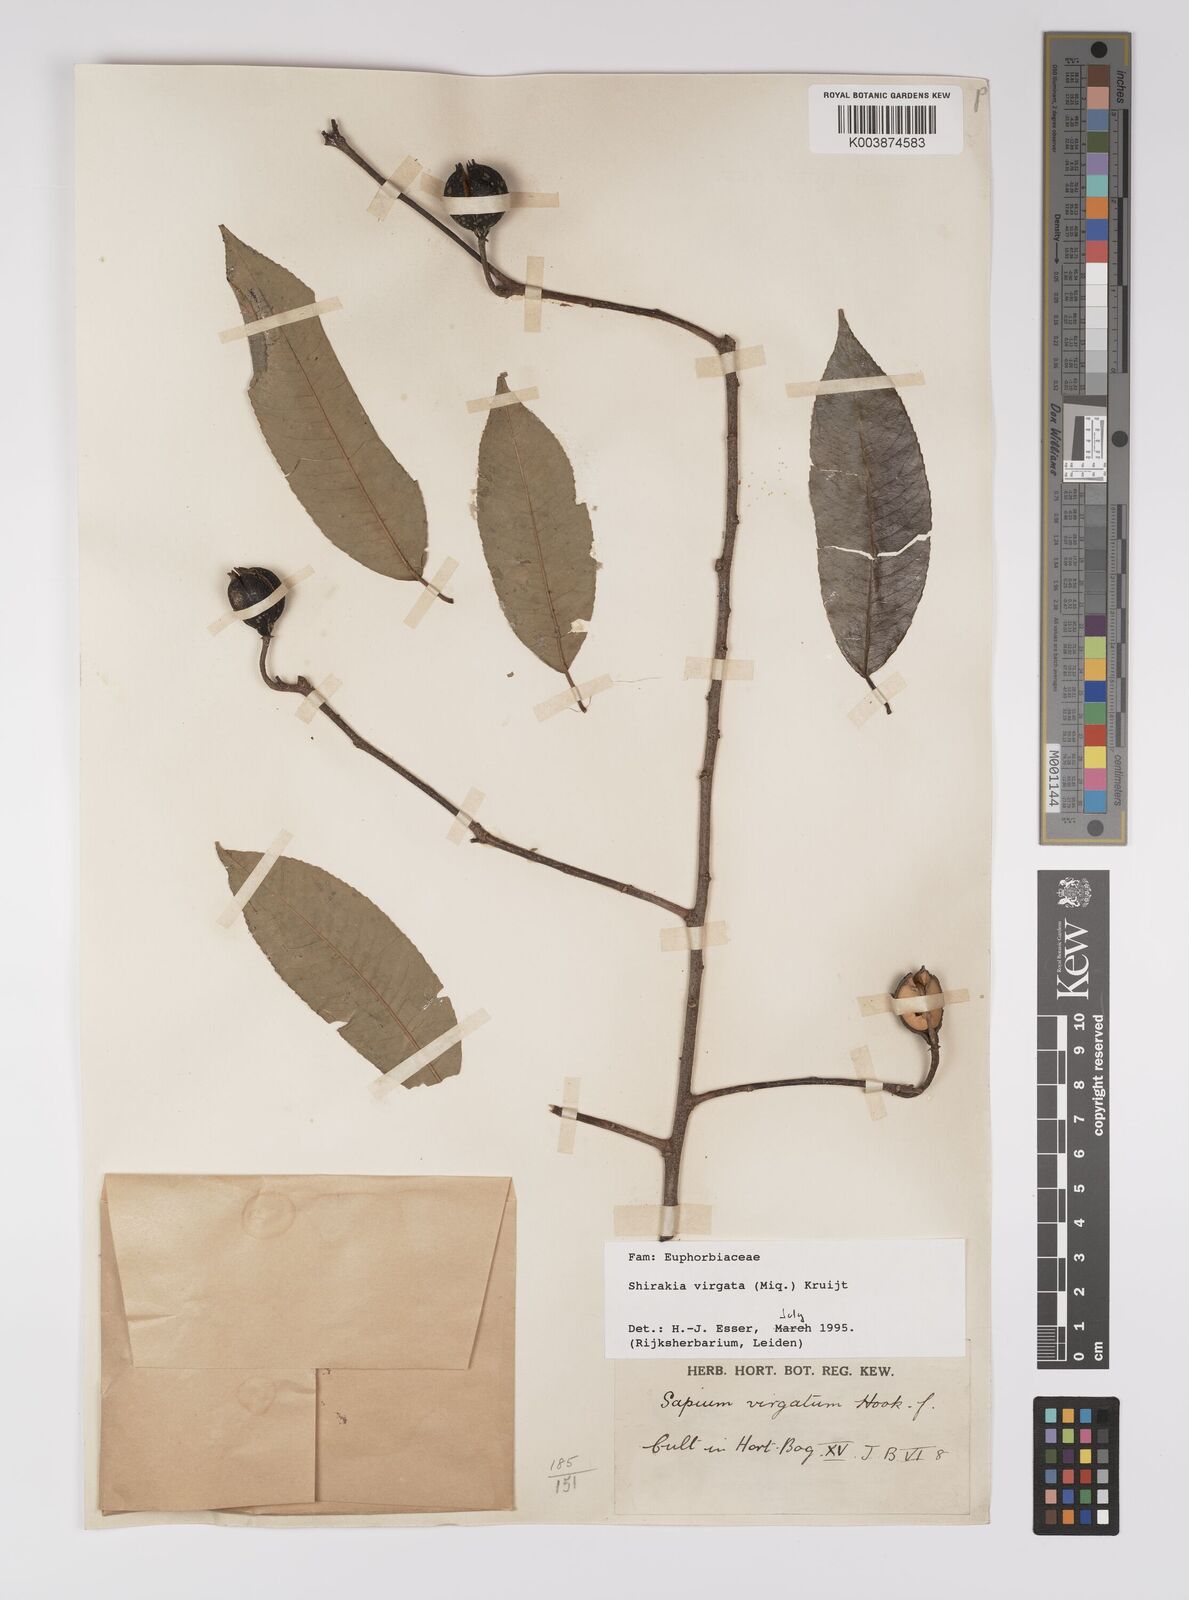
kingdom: Plantae
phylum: Tracheophyta
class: Magnoliopsida
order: Malpighiales
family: Euphorbiaceae
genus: Shirakiopsis
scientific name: Shirakiopsis virgata
